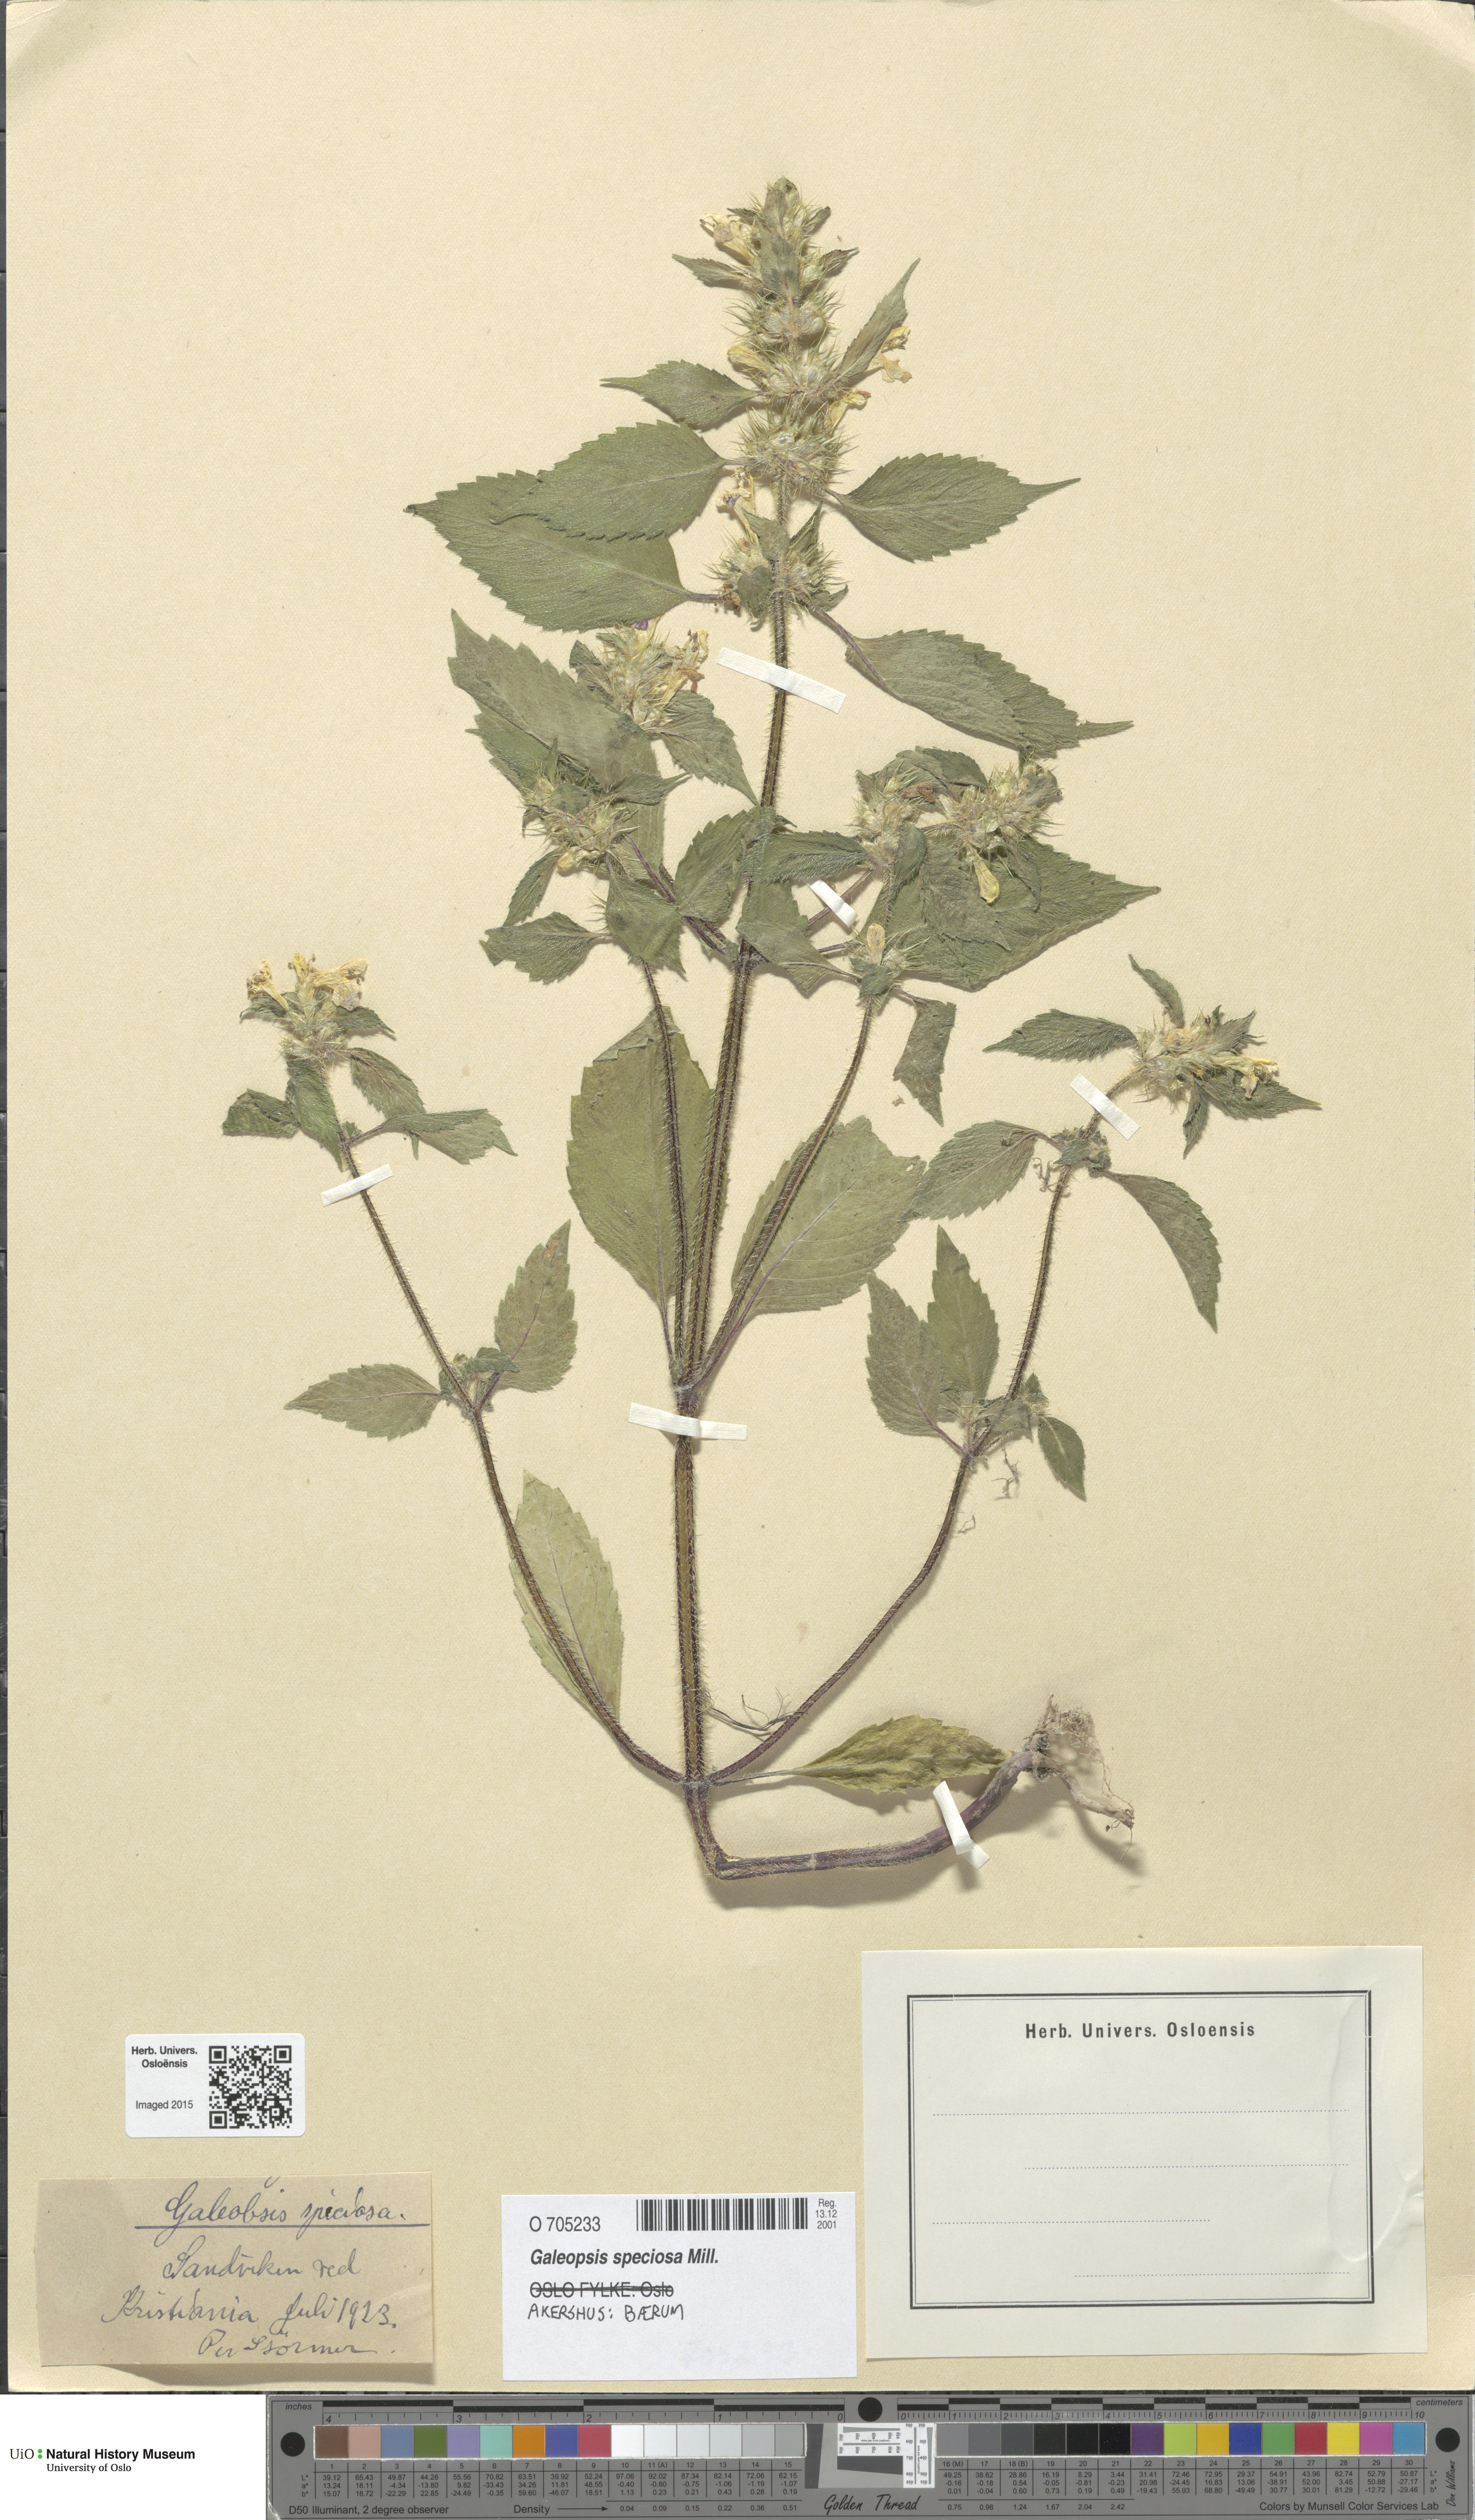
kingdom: Plantae
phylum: Tracheophyta
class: Magnoliopsida
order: Lamiales
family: Lamiaceae
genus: Galeopsis
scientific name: Galeopsis speciosa
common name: Large-flowered hemp-nettle
